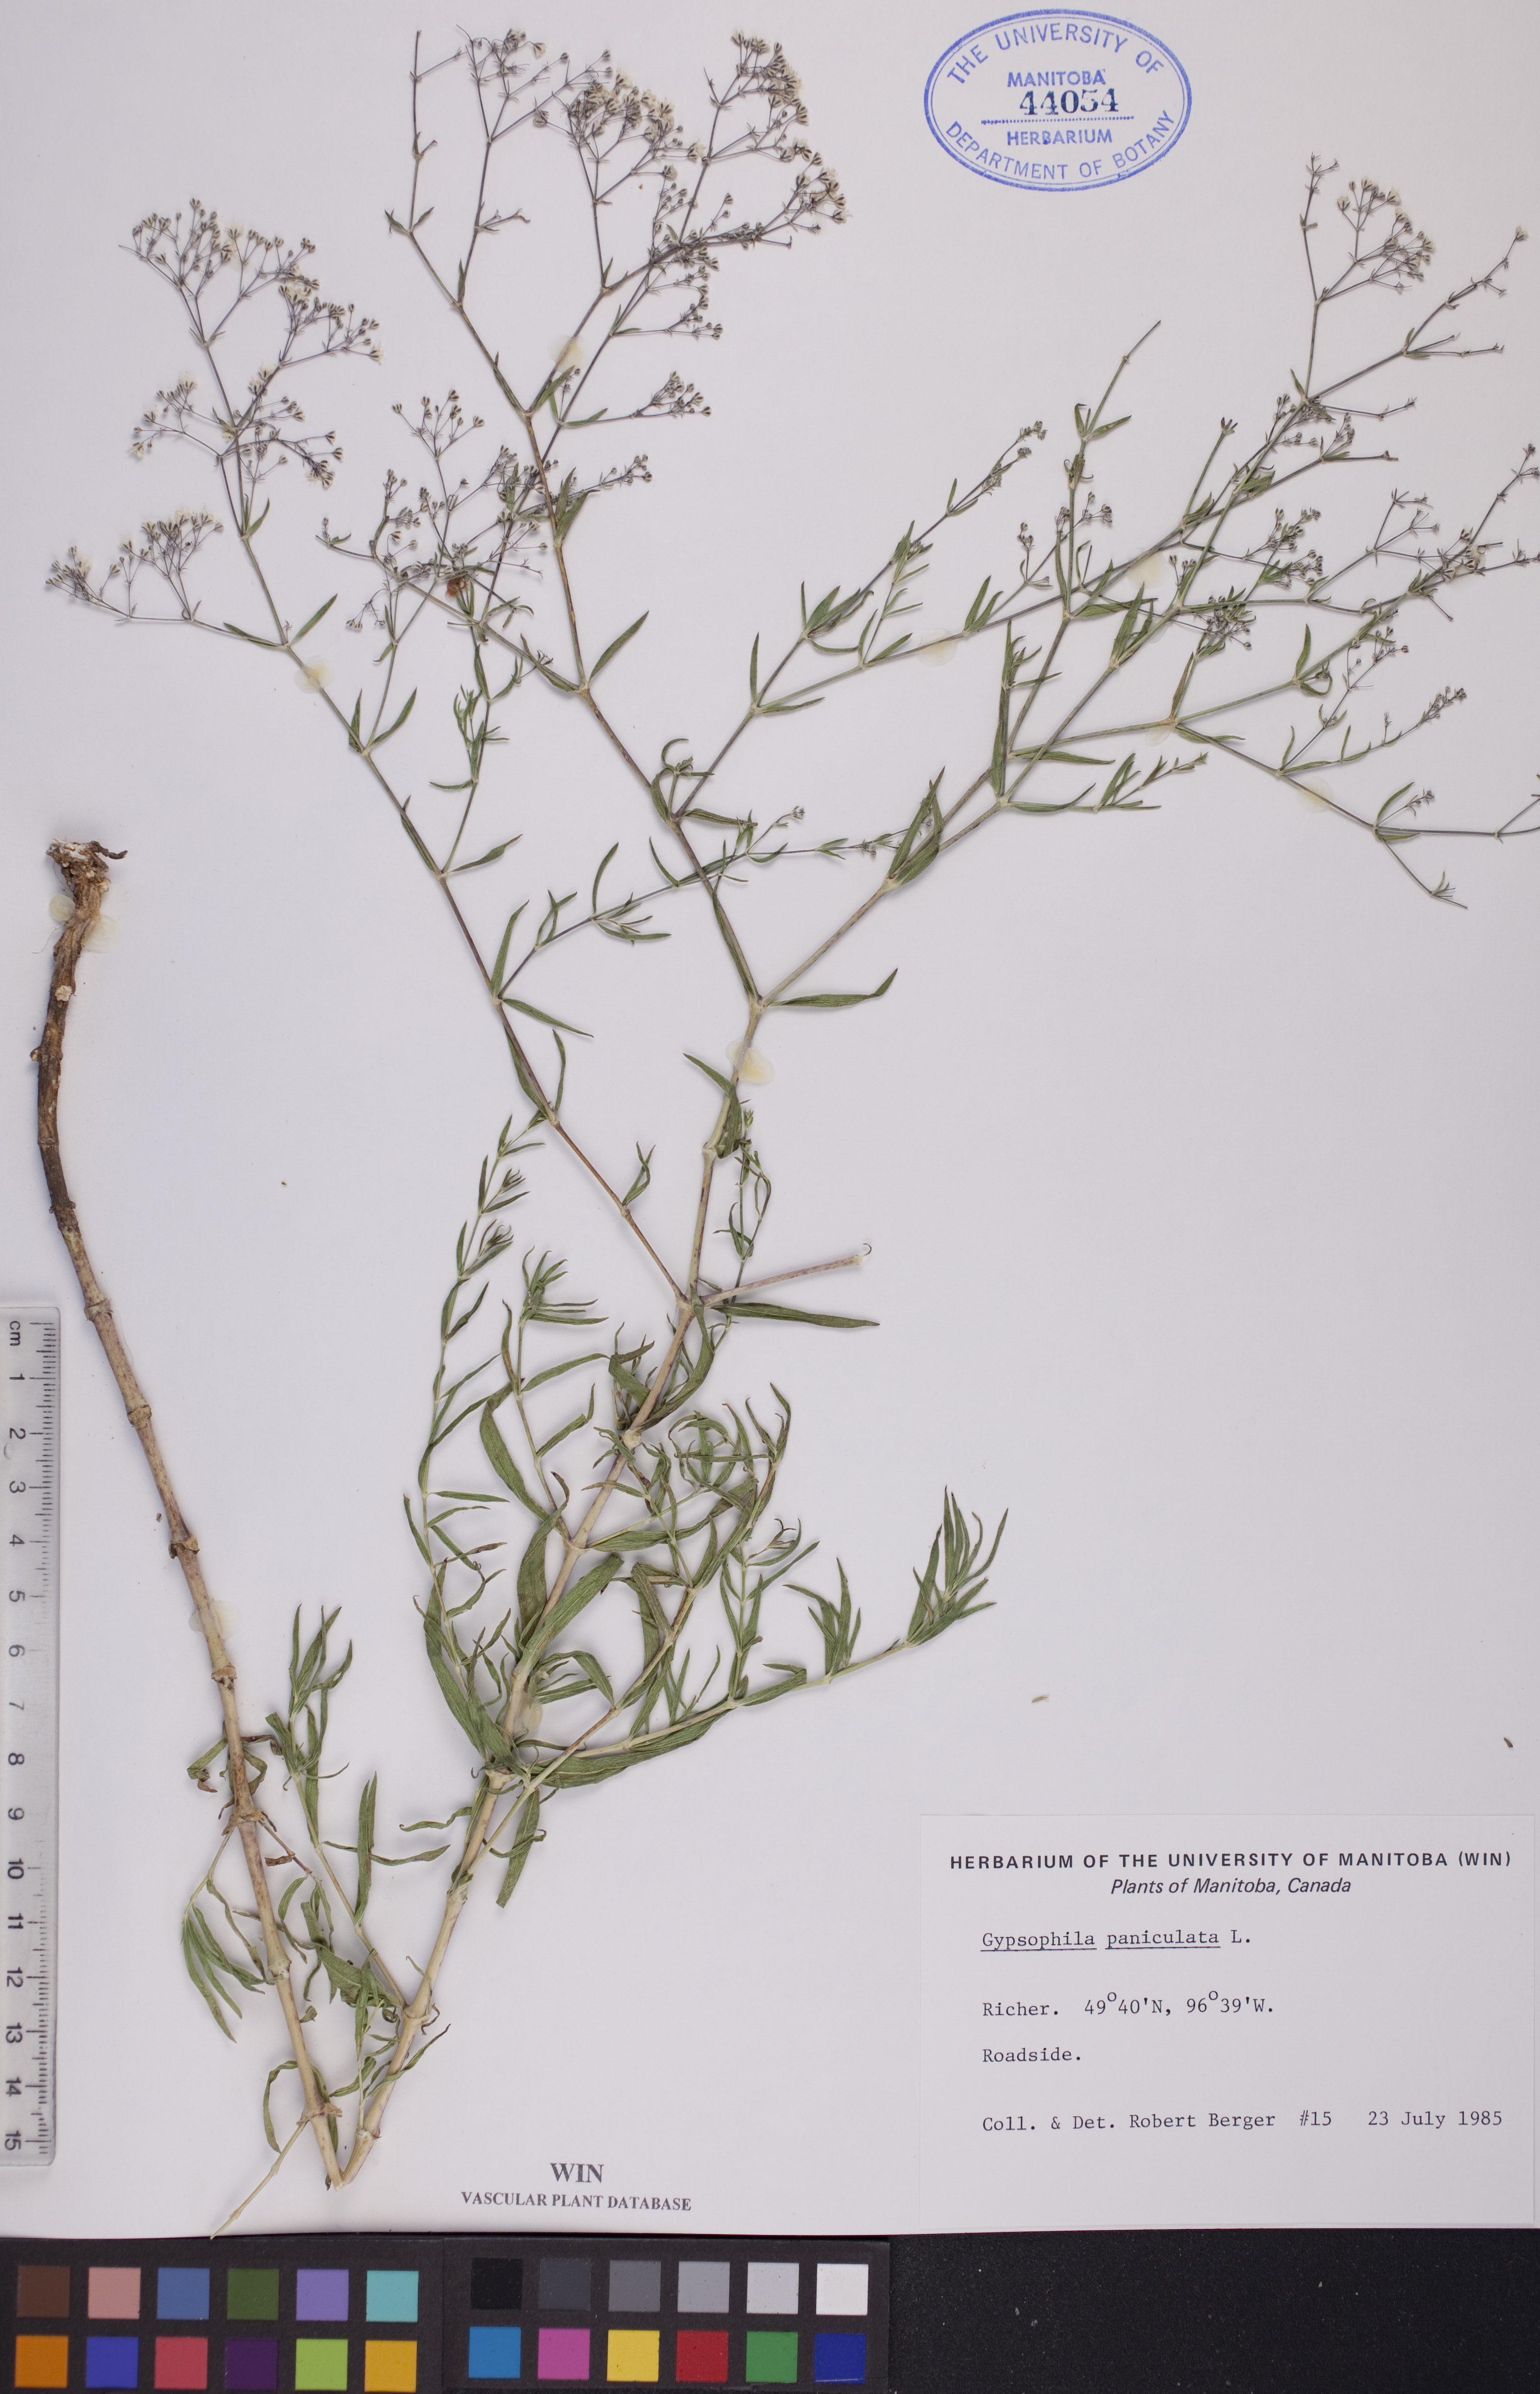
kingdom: Plantae
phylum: Tracheophyta
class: Magnoliopsida
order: Caryophyllales
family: Caryophyllaceae
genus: Gypsophila
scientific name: Gypsophila paniculata
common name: Baby's-breath
